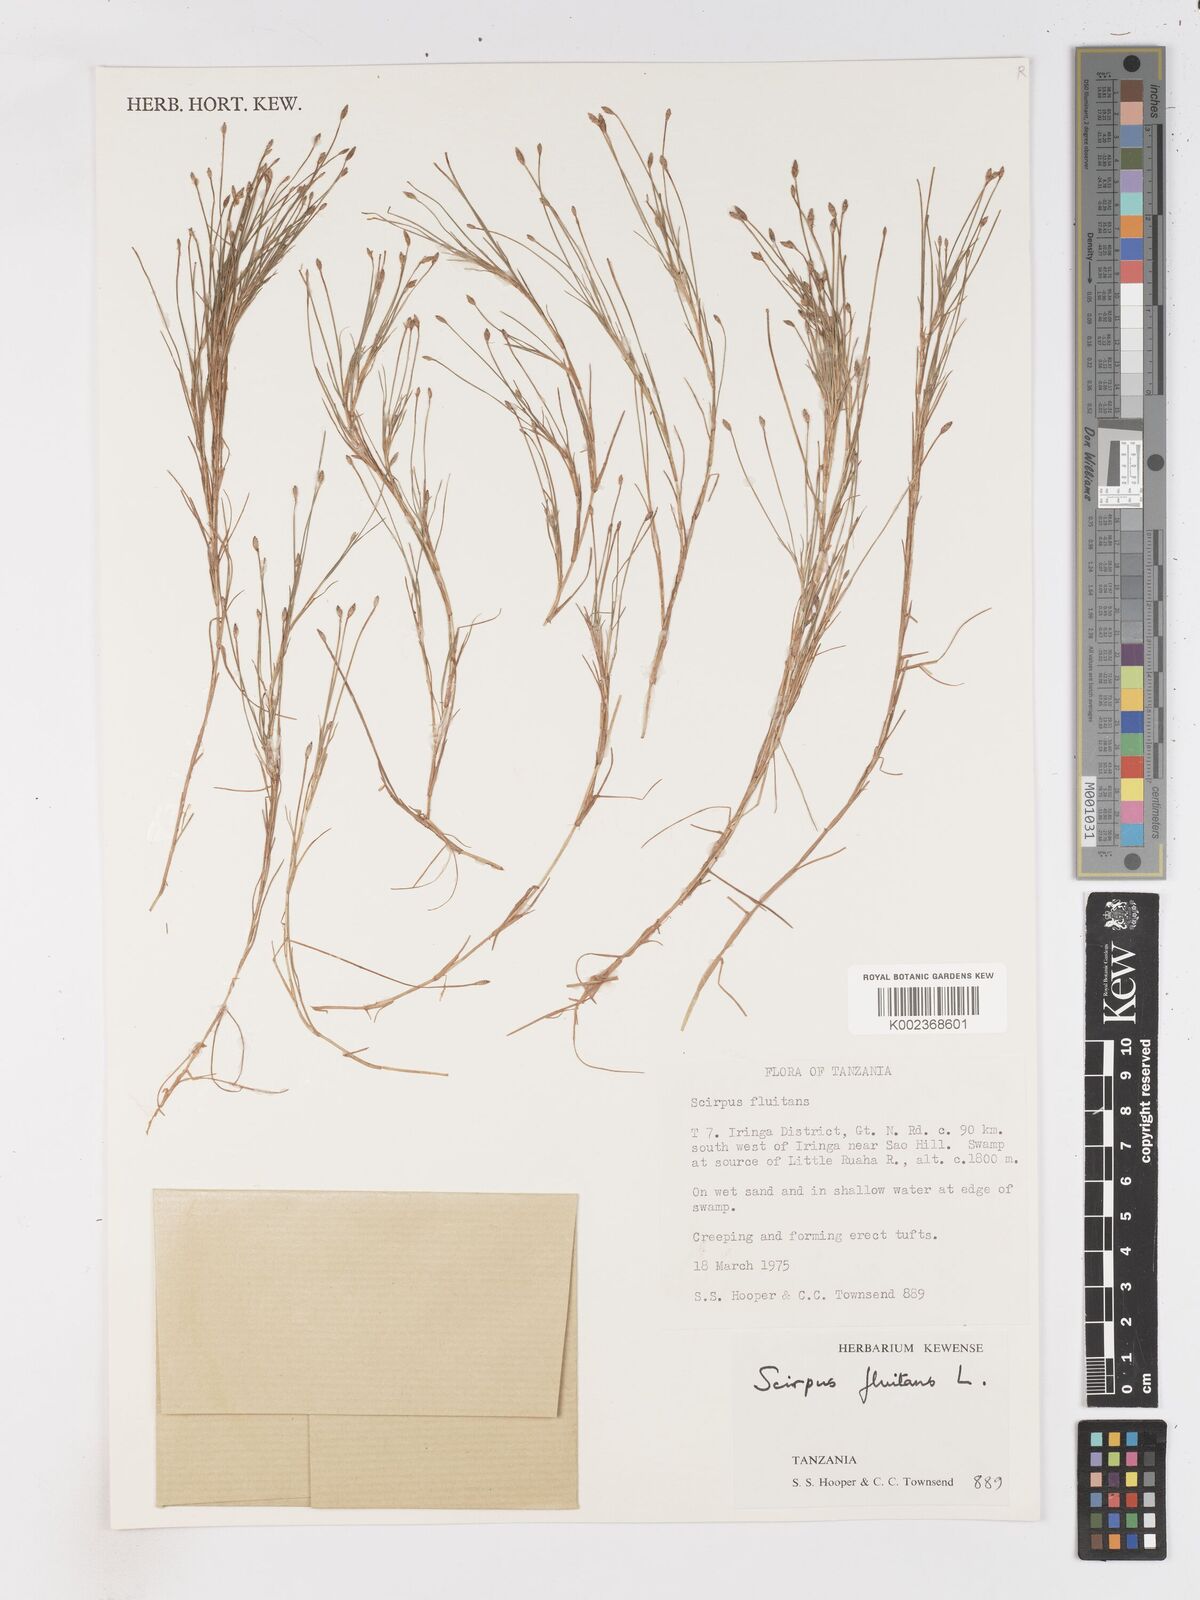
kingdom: Plantae
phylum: Tracheophyta
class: Liliopsida
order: Poales
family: Cyperaceae
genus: Isolepis
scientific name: Isolepis fluitans
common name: Floating club-rush
